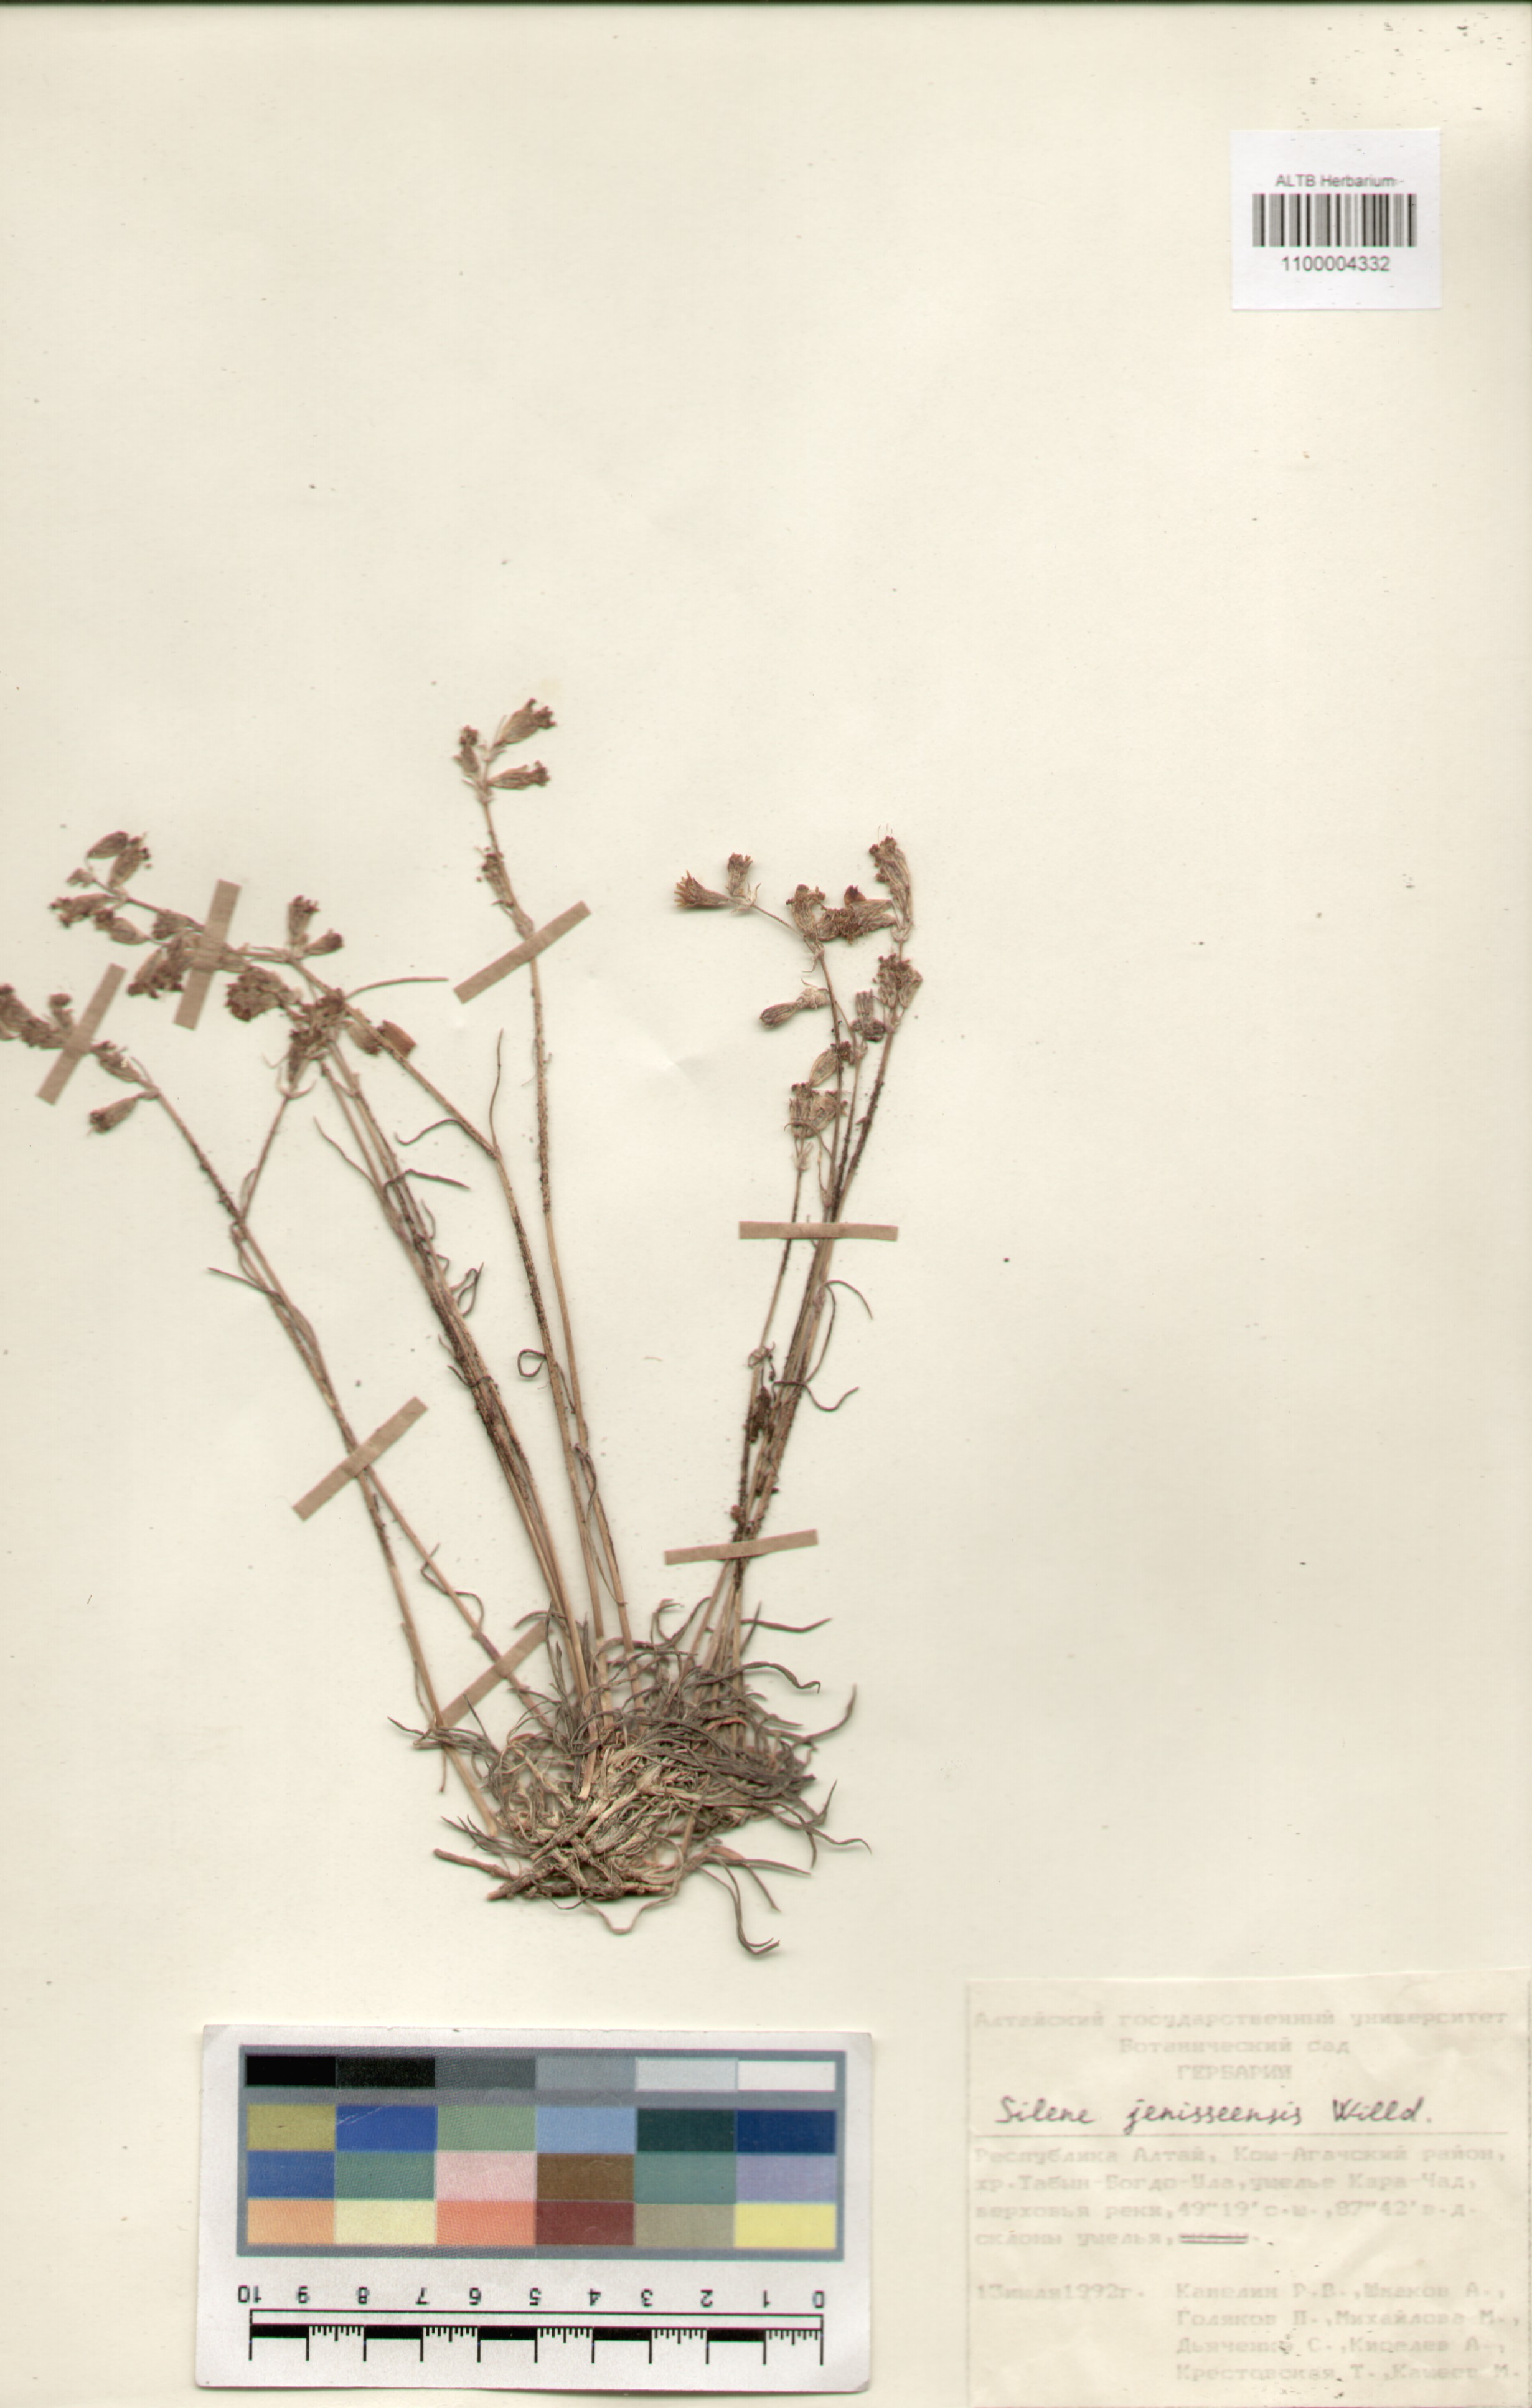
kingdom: Plantae
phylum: Tracheophyta
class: Magnoliopsida
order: Caryophyllales
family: Caryophyllaceae
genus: Silene
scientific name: Silene jeniseensis
